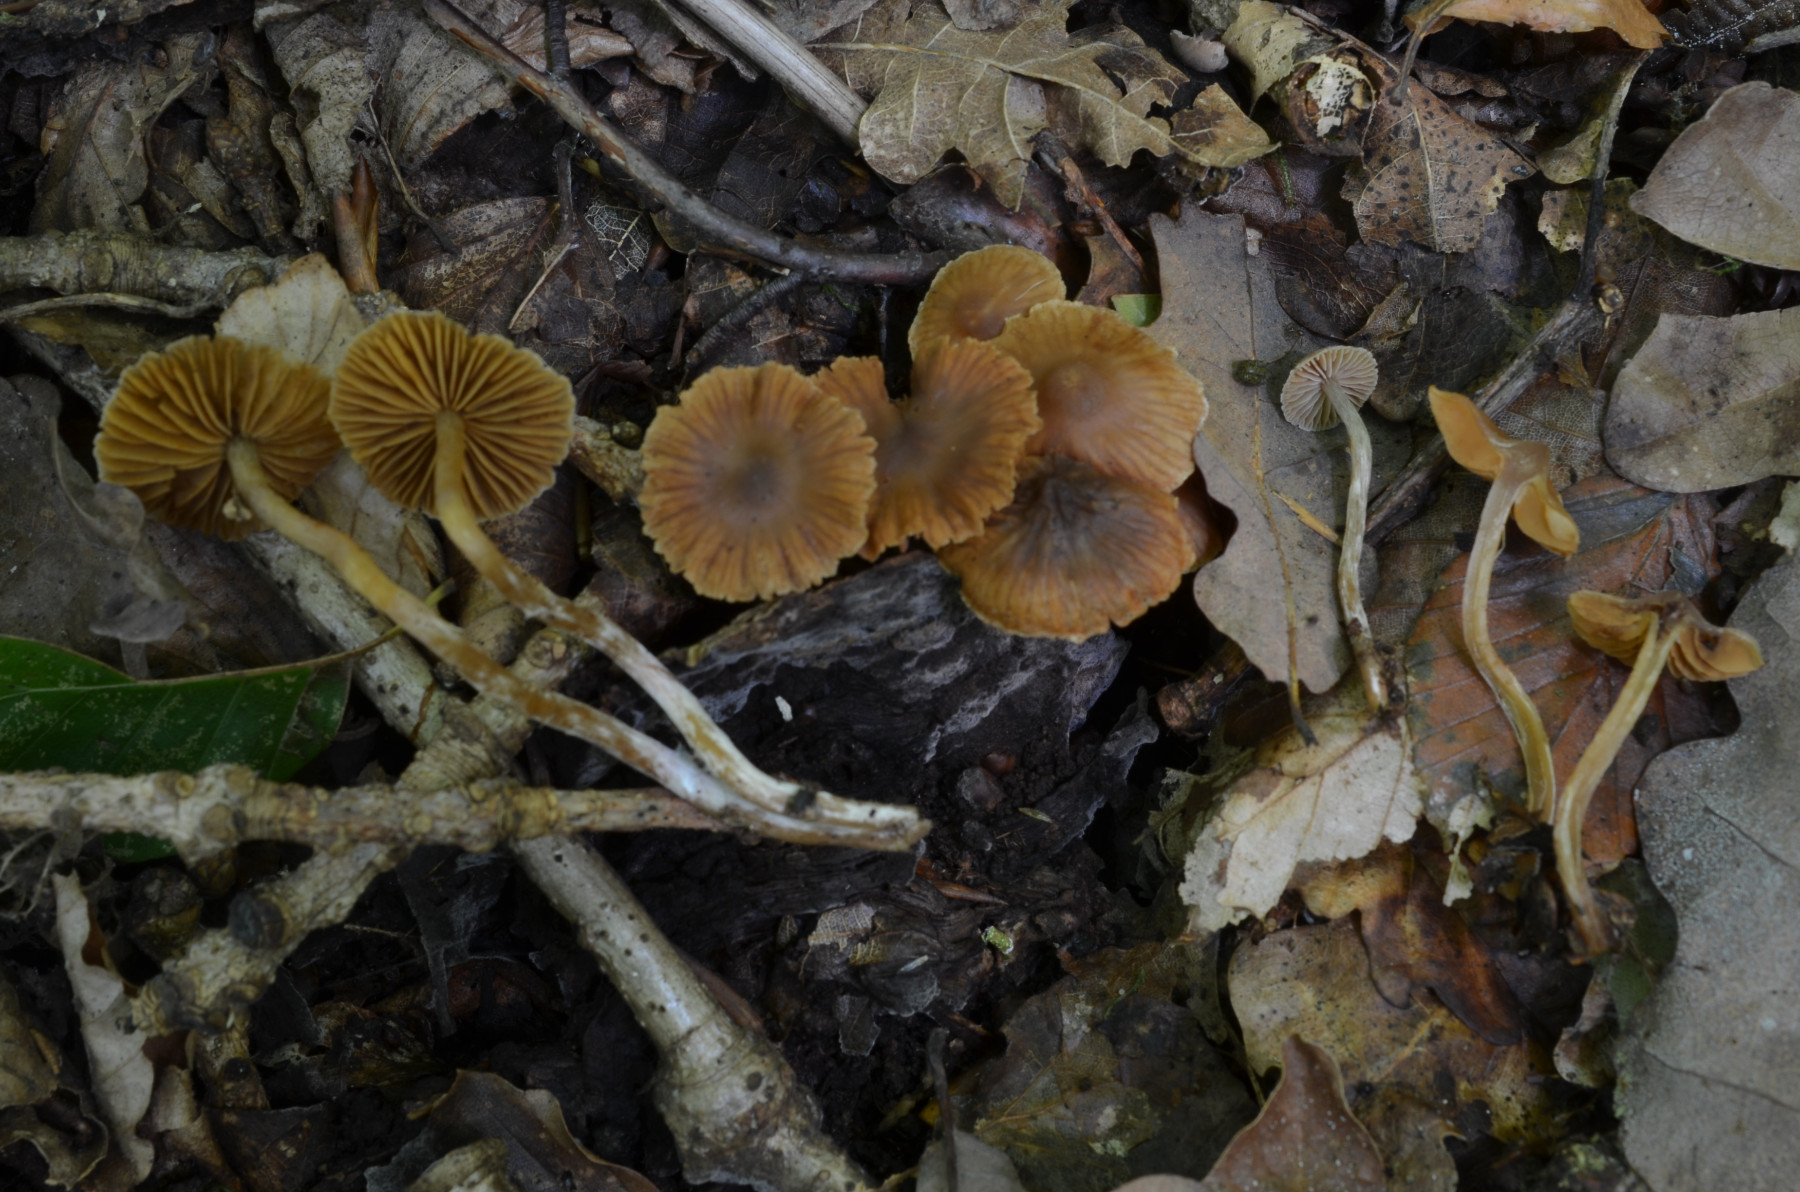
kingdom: Fungi
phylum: Basidiomycota
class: Agaricomycetes
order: Agaricales
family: Cortinariaceae
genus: Cortinarius
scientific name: Cortinarius russulaespermus
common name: finstribet slørhat
